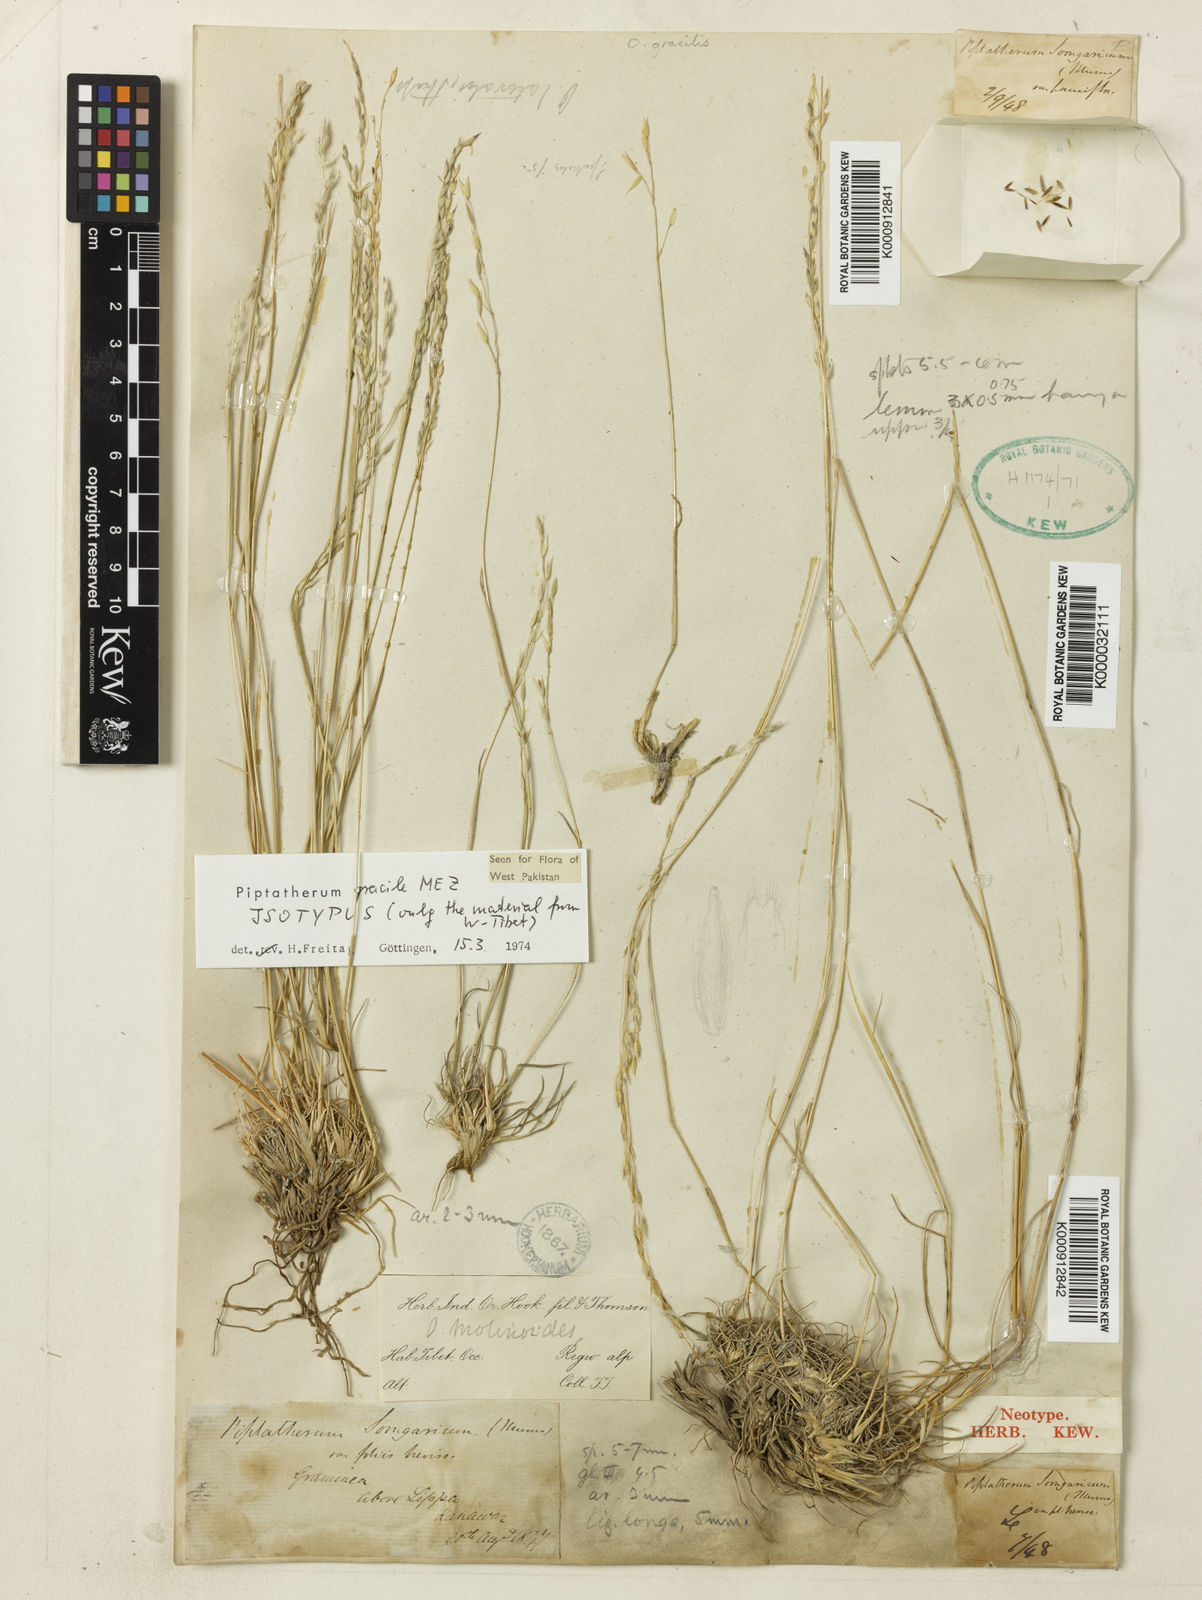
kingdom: Plantae
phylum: Tracheophyta
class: Liliopsida
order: Poales
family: Poaceae
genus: Piptatherum
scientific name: Piptatherum gracile
